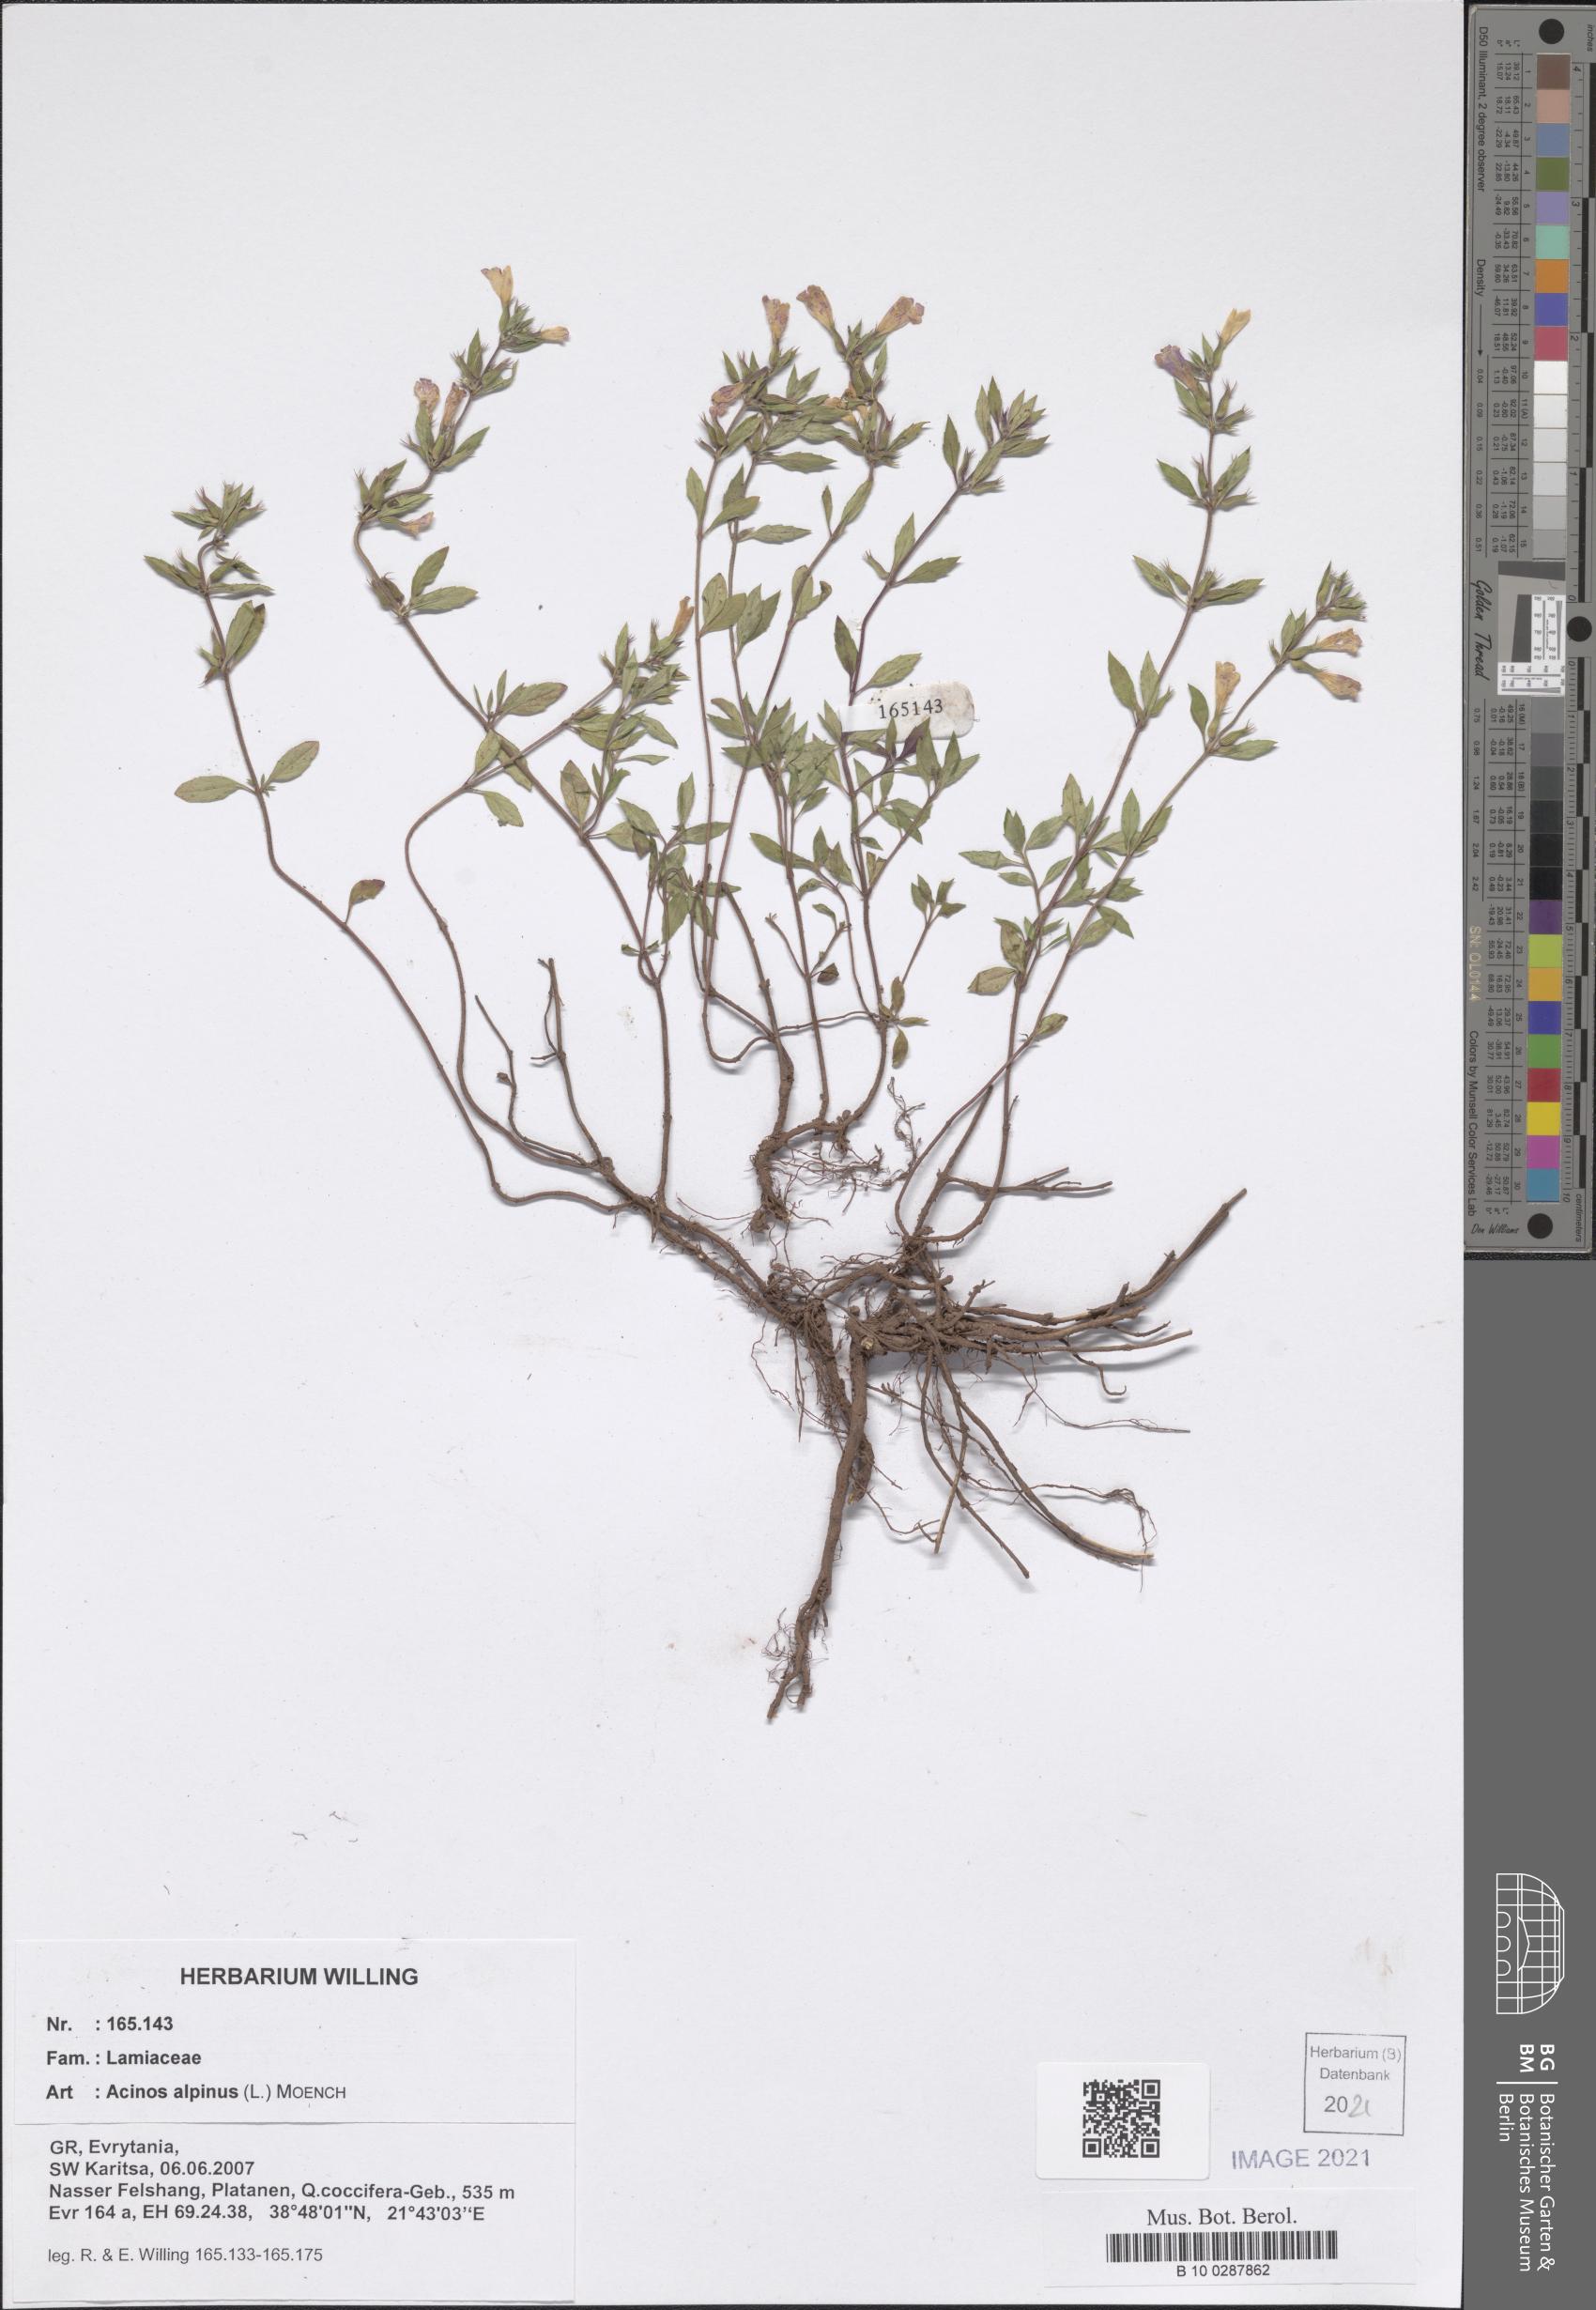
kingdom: Plantae
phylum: Tracheophyta
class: Magnoliopsida
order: Lamiales
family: Lamiaceae
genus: Clinopodium
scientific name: Clinopodium alpinum
